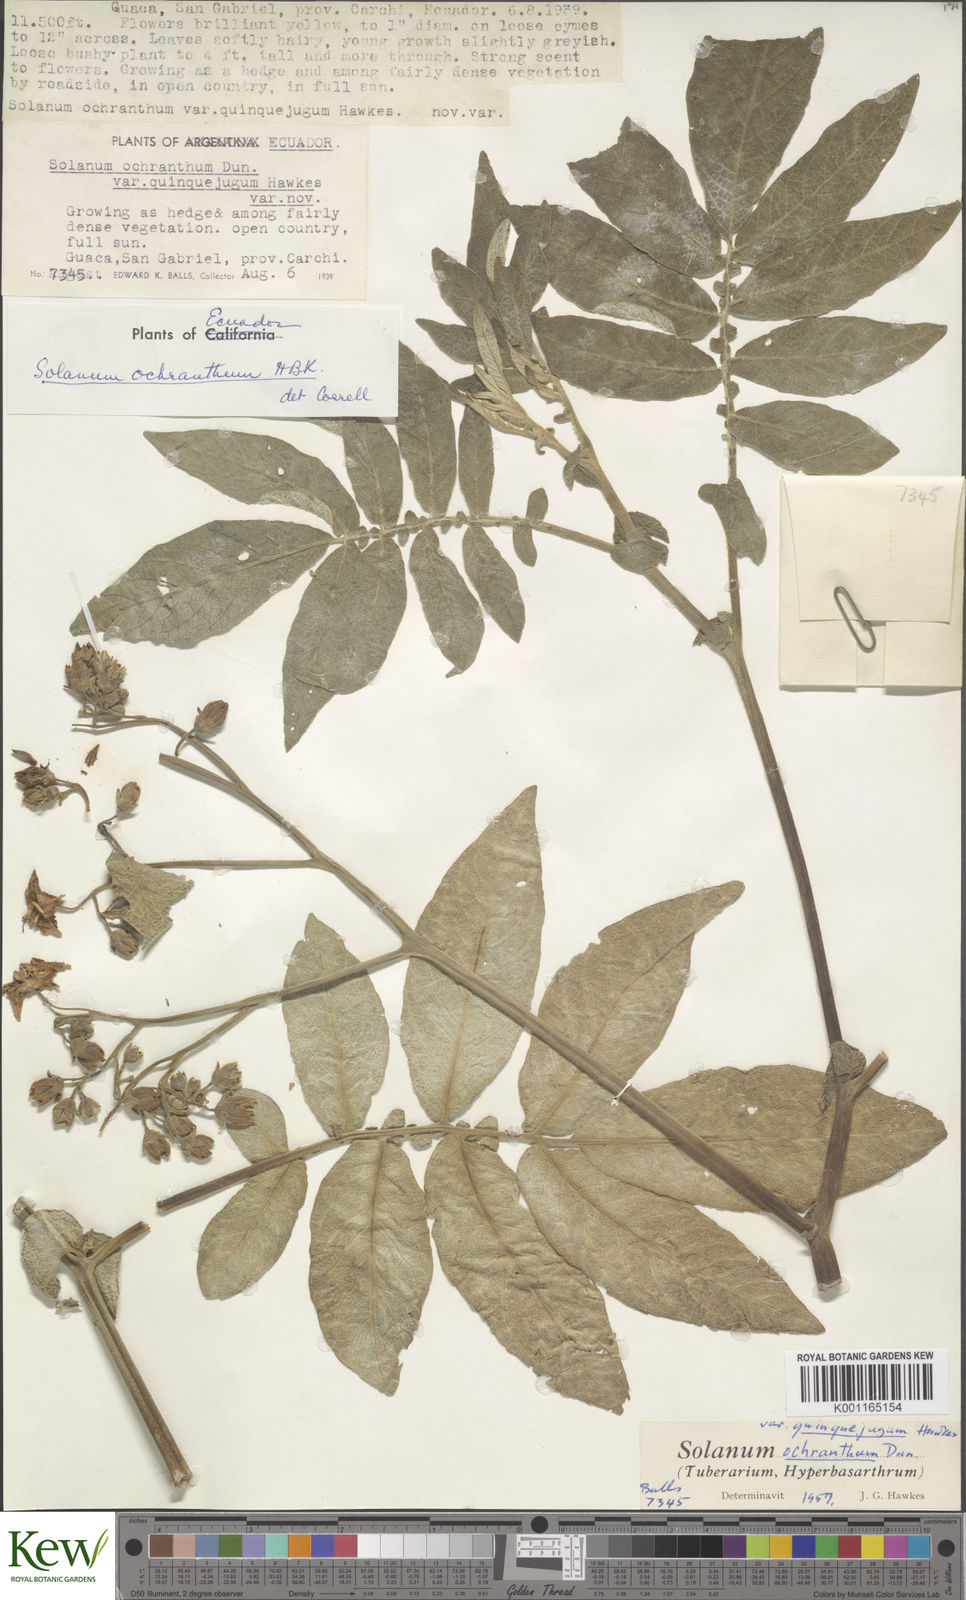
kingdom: Plantae
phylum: Tracheophyta
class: Magnoliopsida
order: Solanales
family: Solanaceae
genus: Solanum
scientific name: Solanum ochranthum
